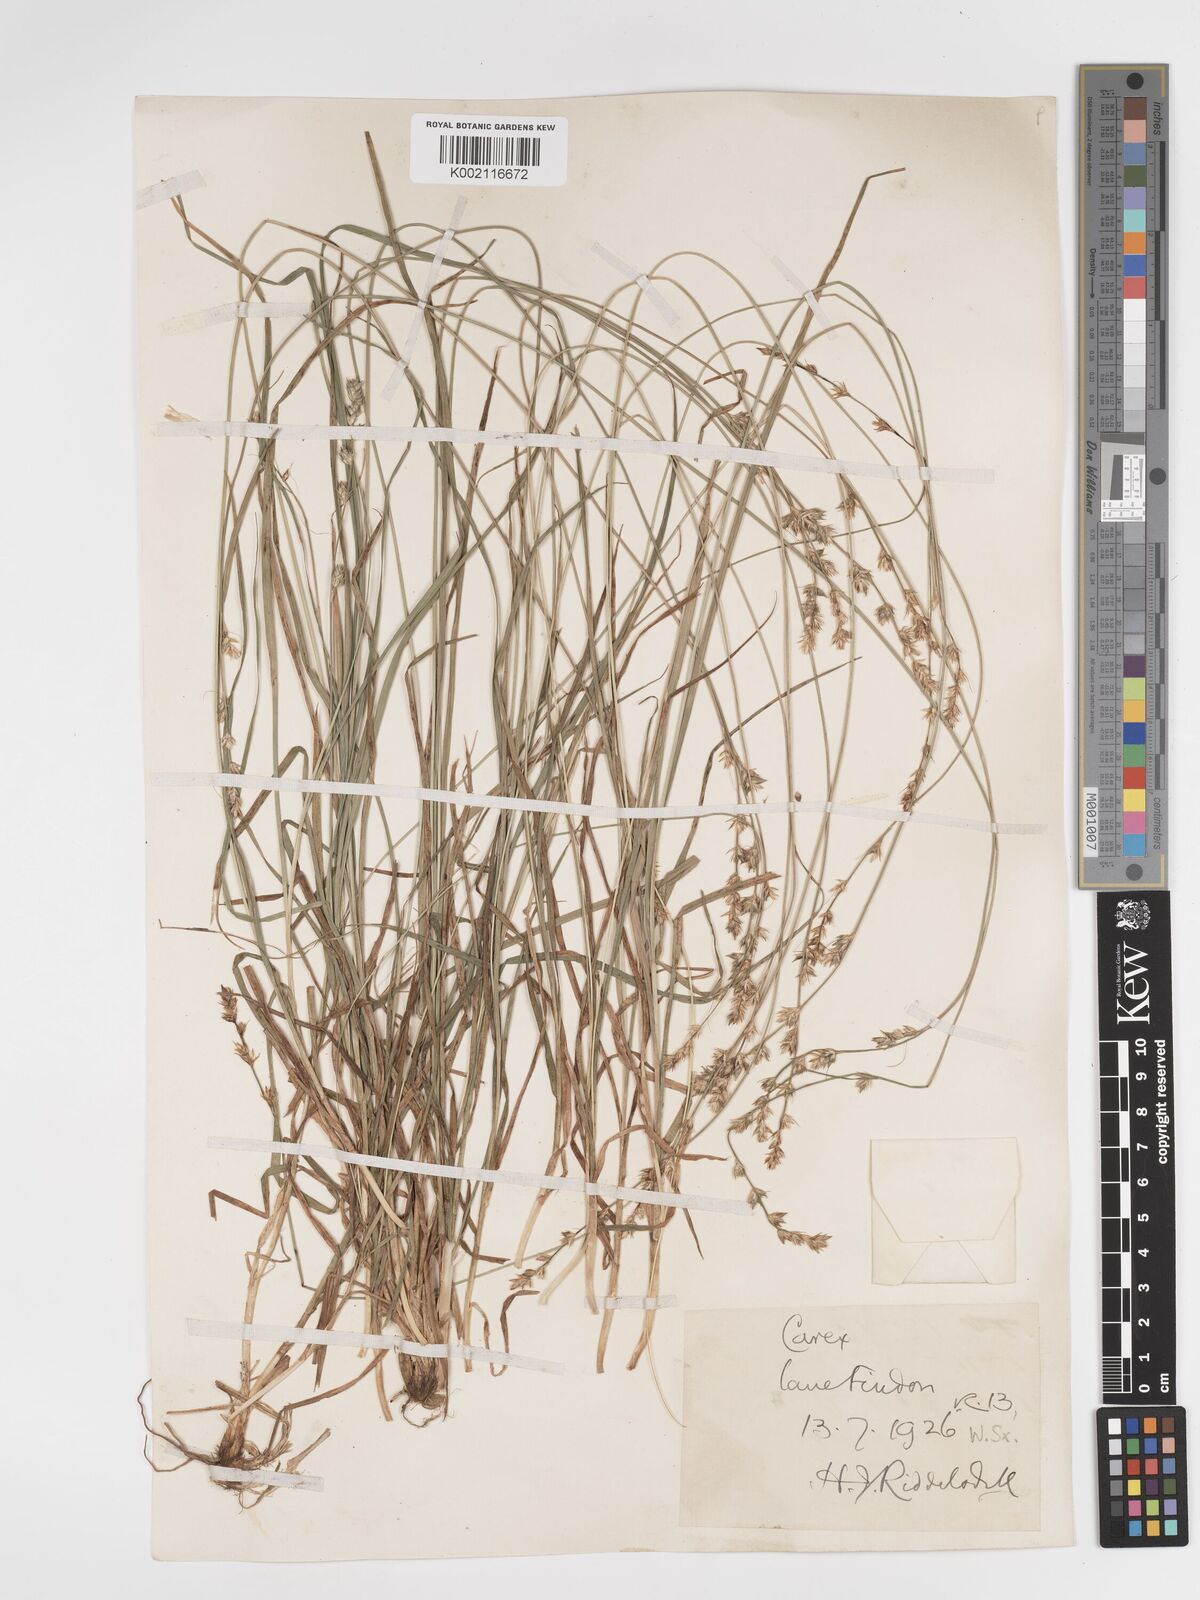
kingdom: Plantae
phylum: Tracheophyta
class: Liliopsida
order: Poales
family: Cyperaceae
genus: Carex
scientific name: Carex divulsa
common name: Grassland sedge
